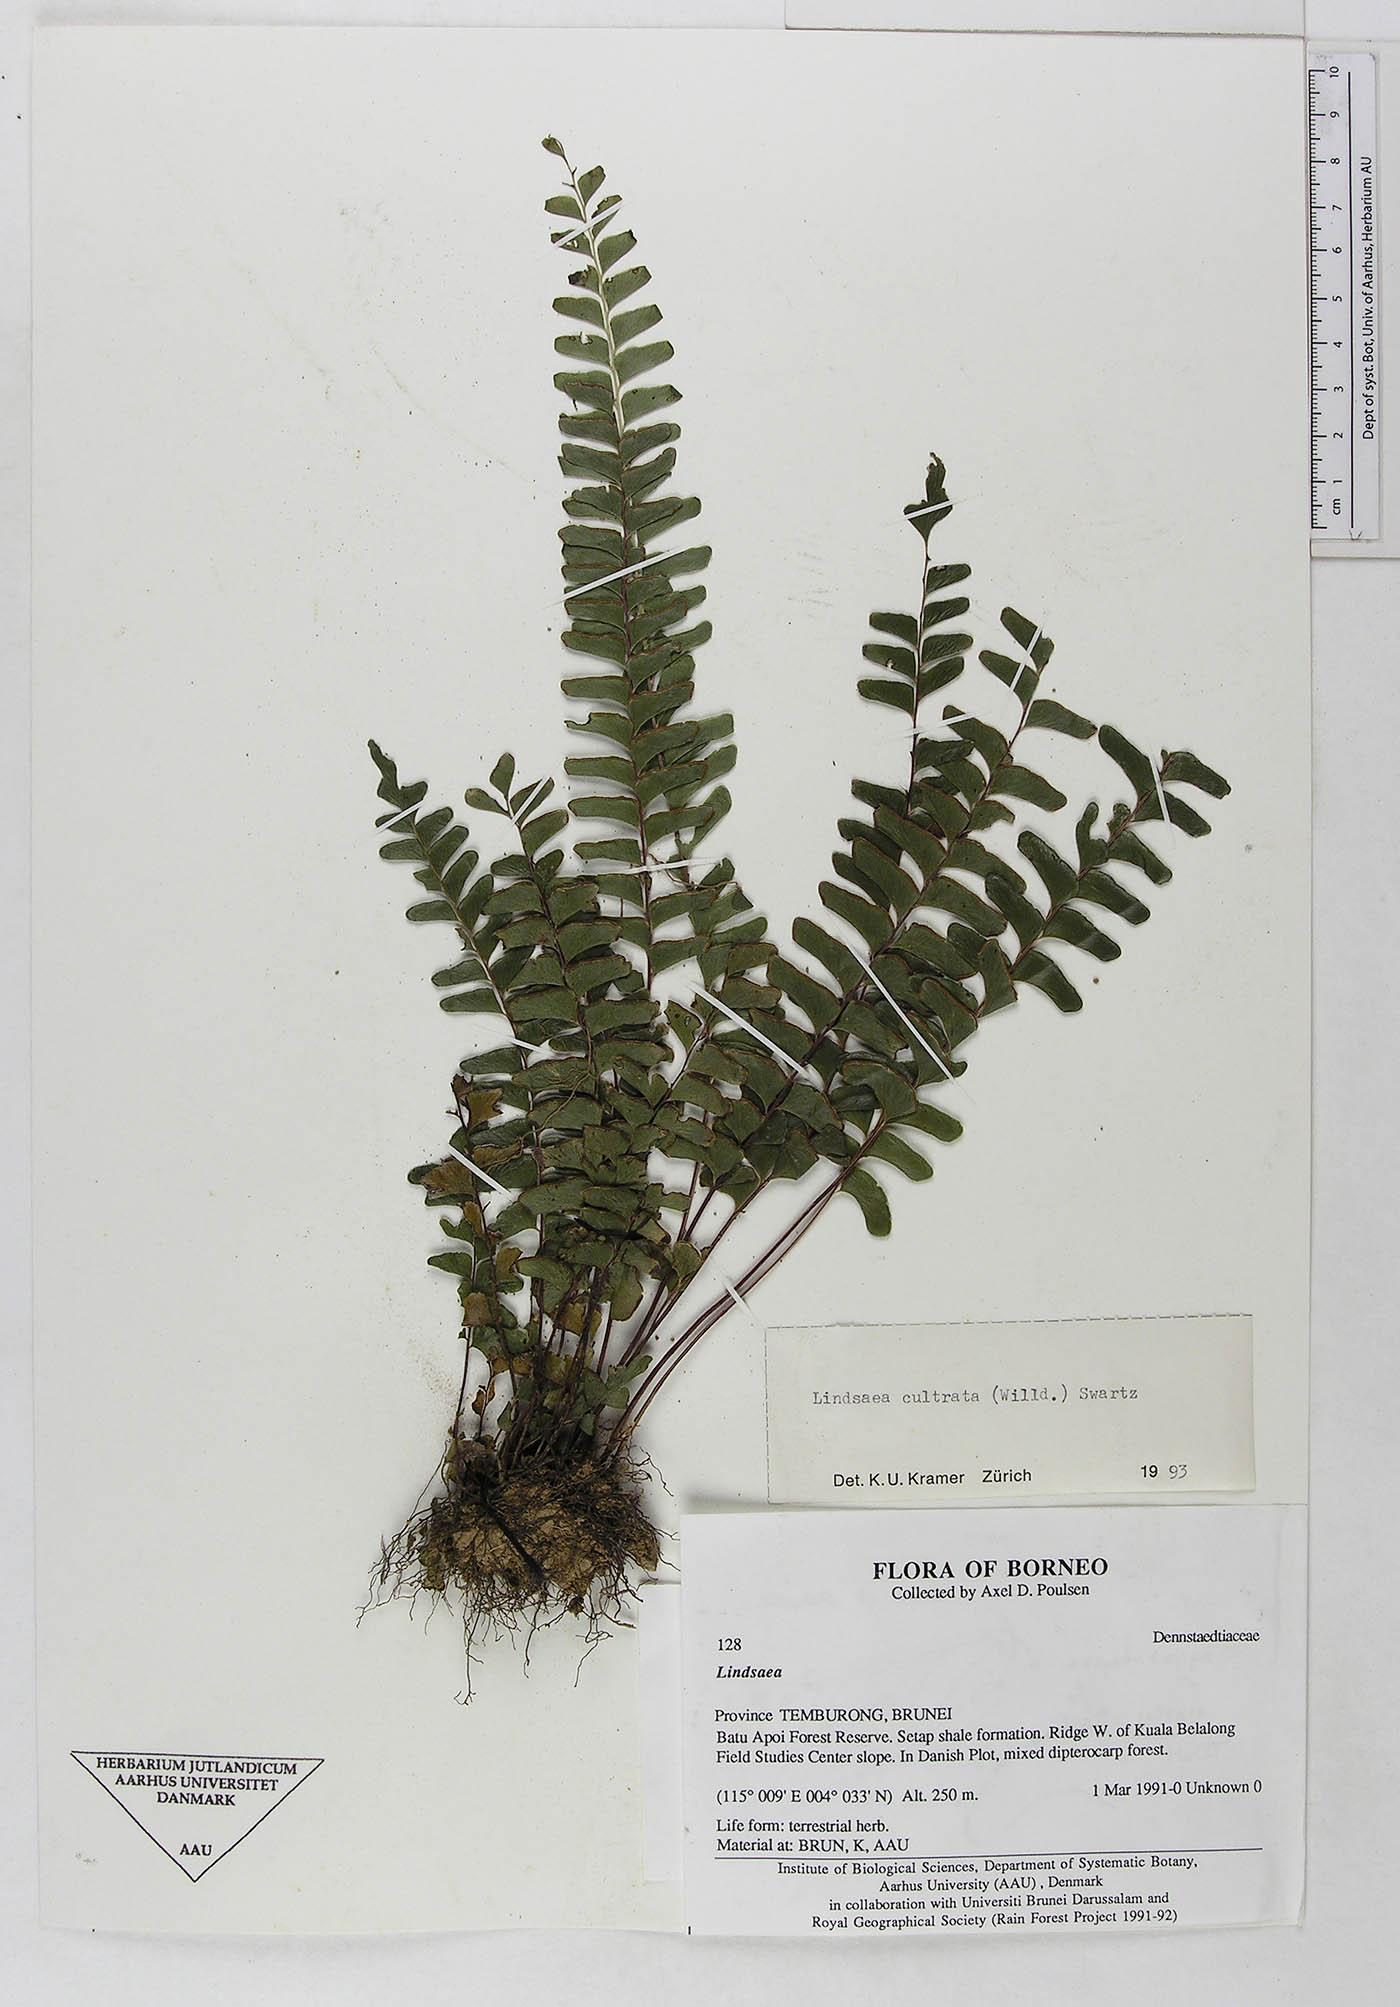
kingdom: Plantae
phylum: Tracheophyta
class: Polypodiopsida
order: Polypodiales
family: Lindsaeaceae
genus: Lindsaea
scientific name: Lindsaea cultrata
